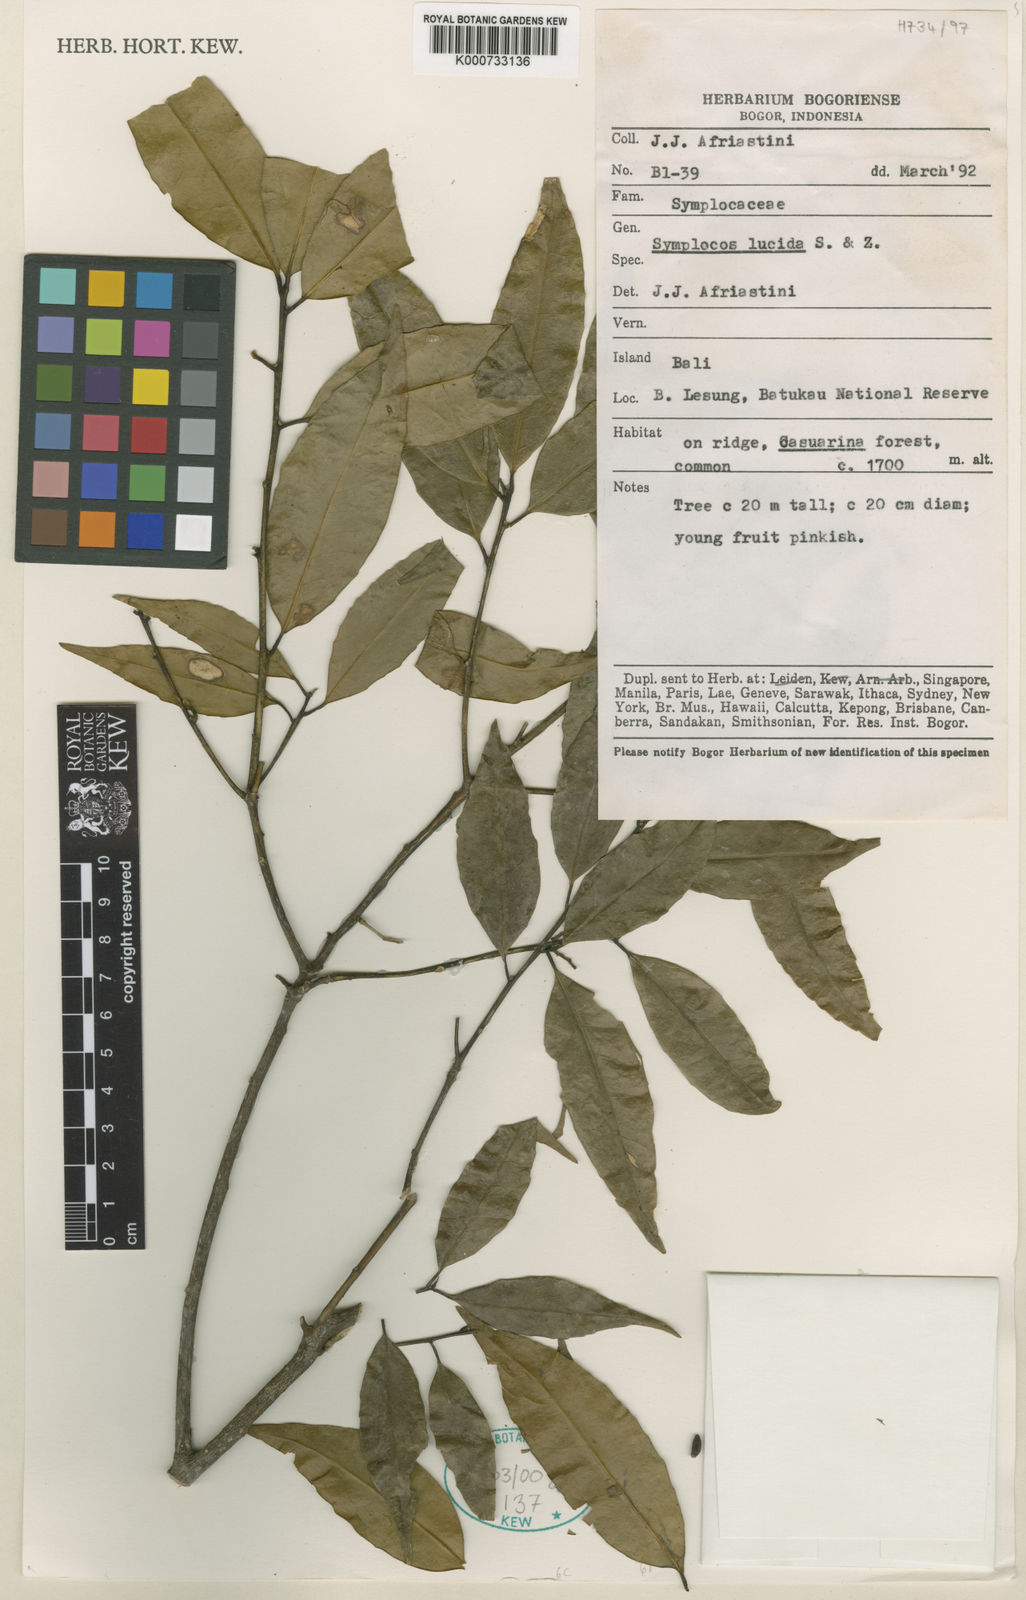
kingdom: Plantae
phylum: Tracheophyta
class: Magnoliopsida
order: Ericales
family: Symplocaceae
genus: Symplocos
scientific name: Symplocos
